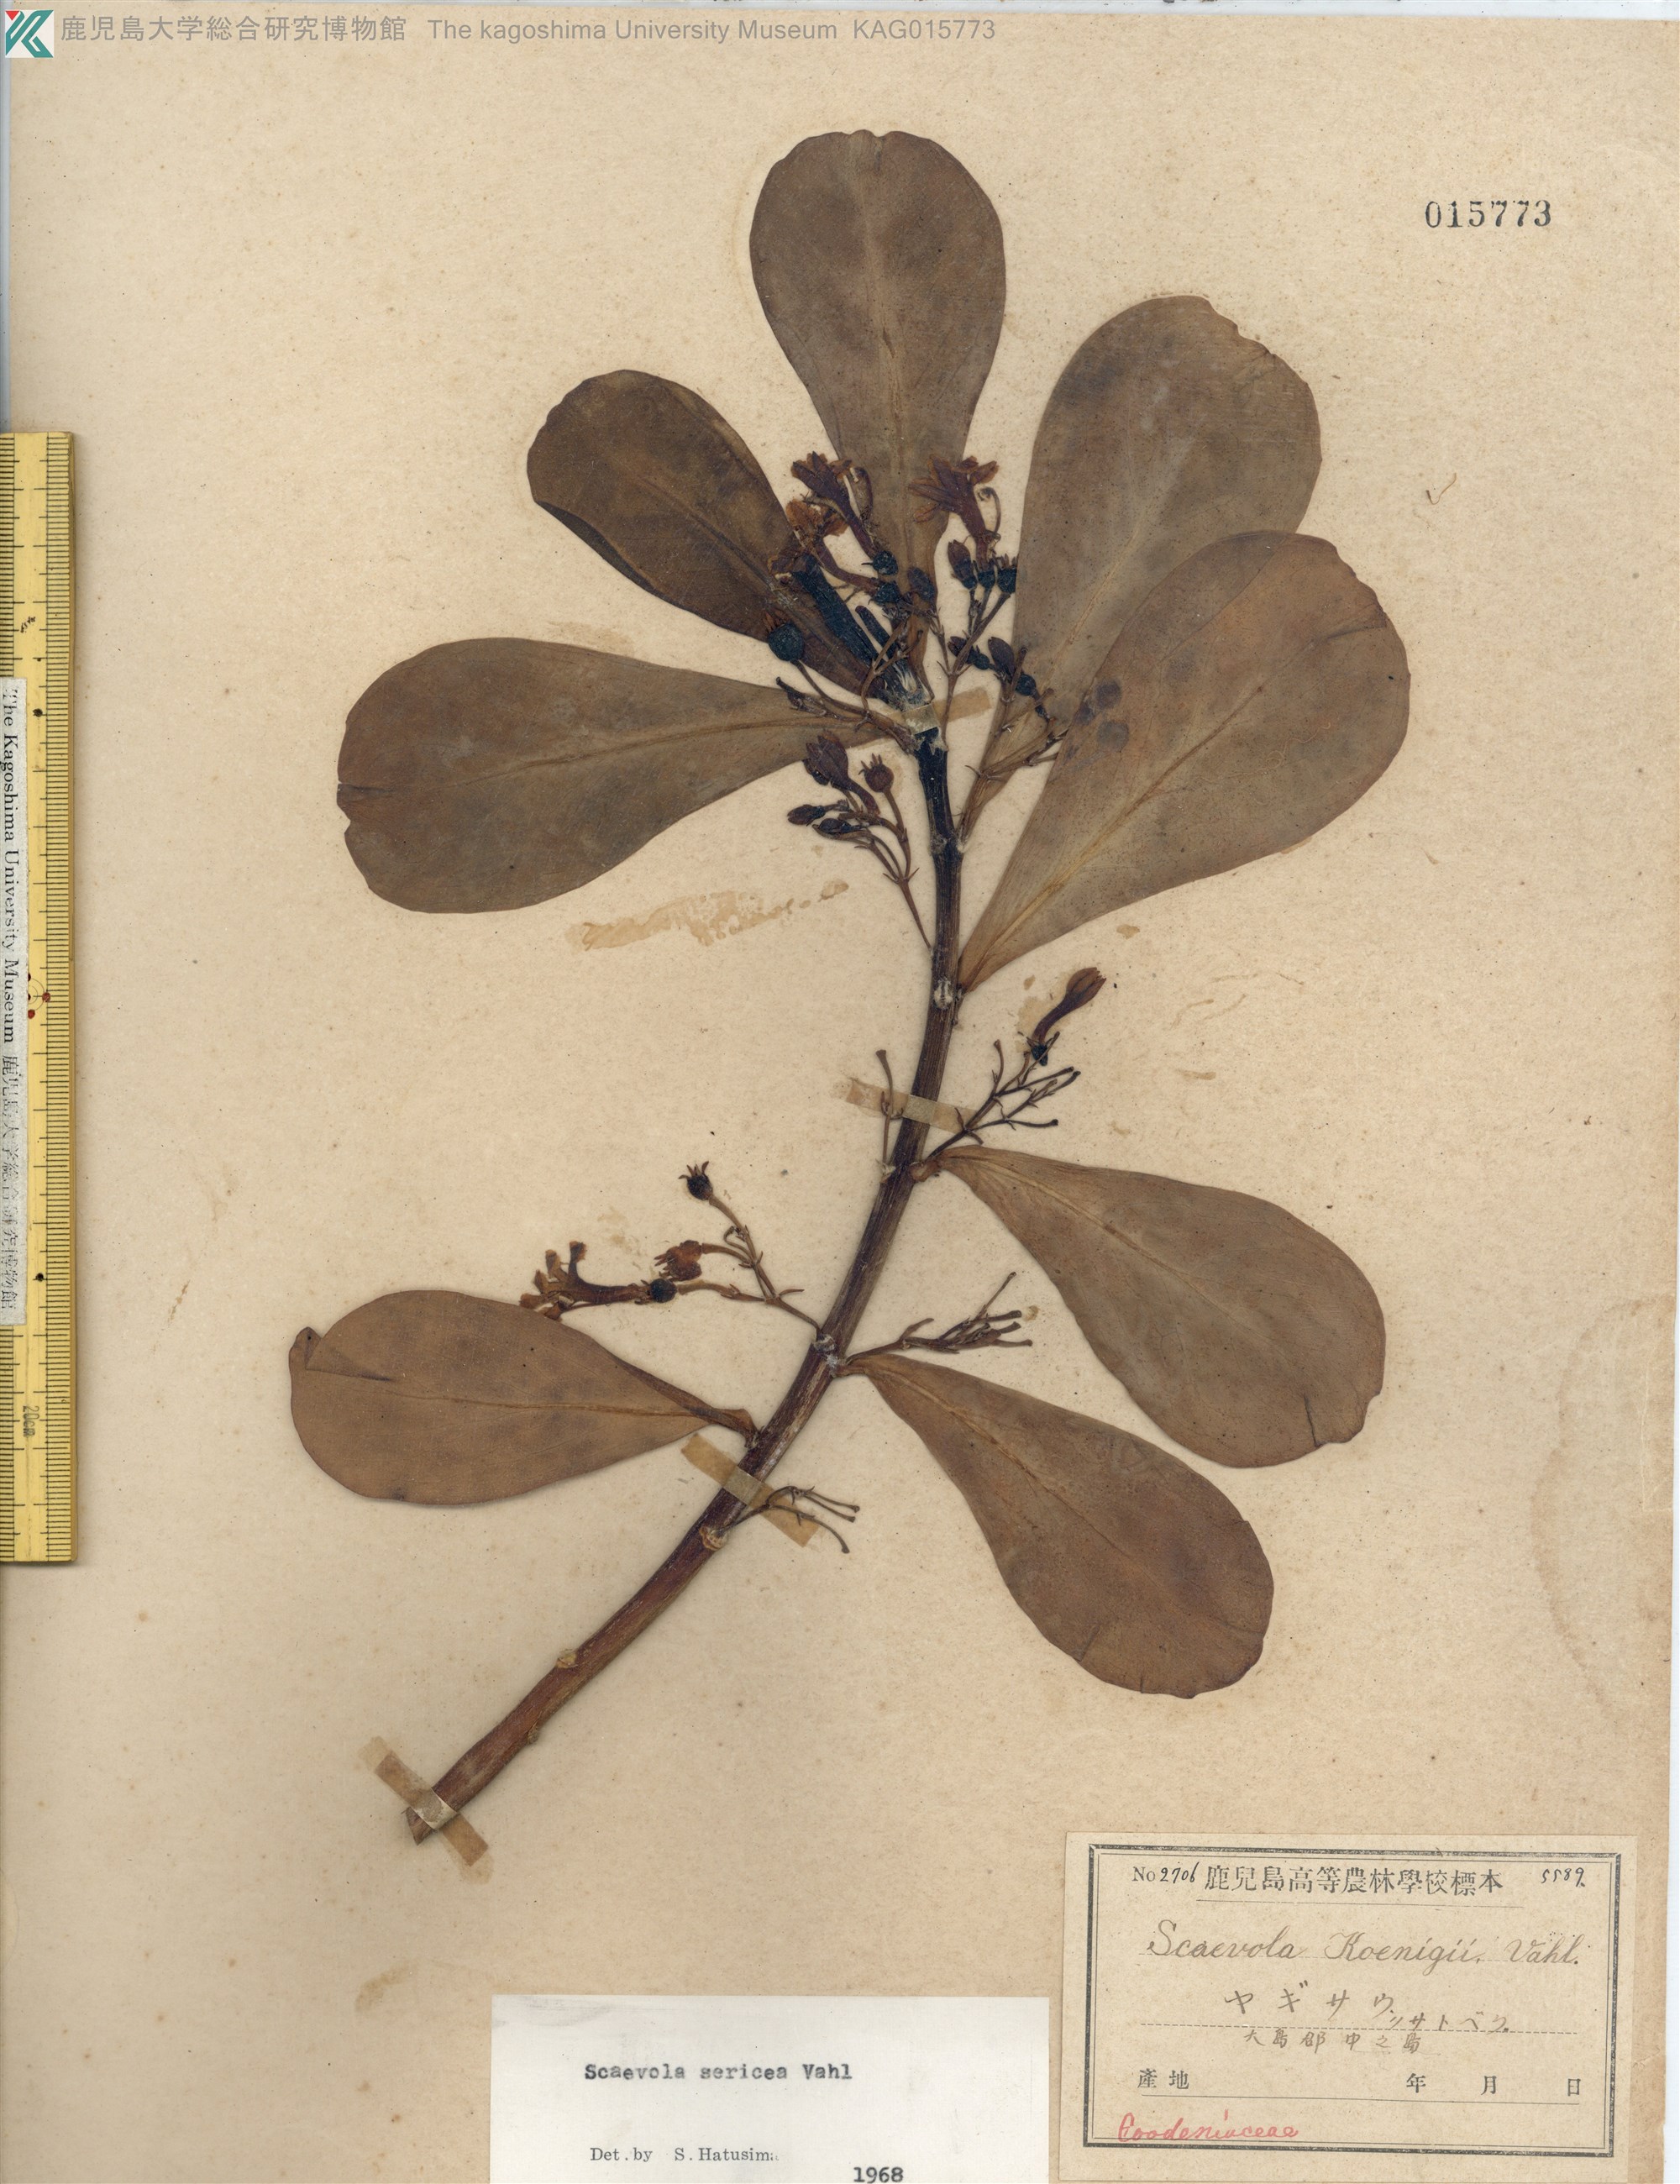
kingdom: Plantae
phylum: Tracheophyta
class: Magnoliopsida
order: Asterales
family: Goodeniaceae
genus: Scaevola
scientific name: Scaevola taccada
